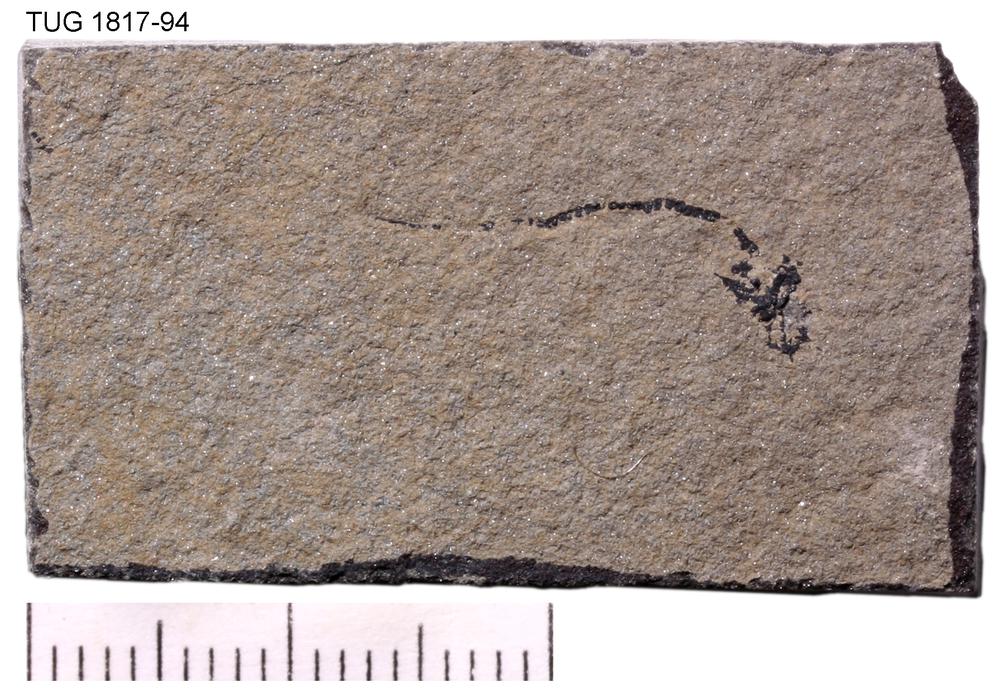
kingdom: Animalia
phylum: Chordata
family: Dipteridae
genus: Palaeospondylus
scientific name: Palaeospondylus
